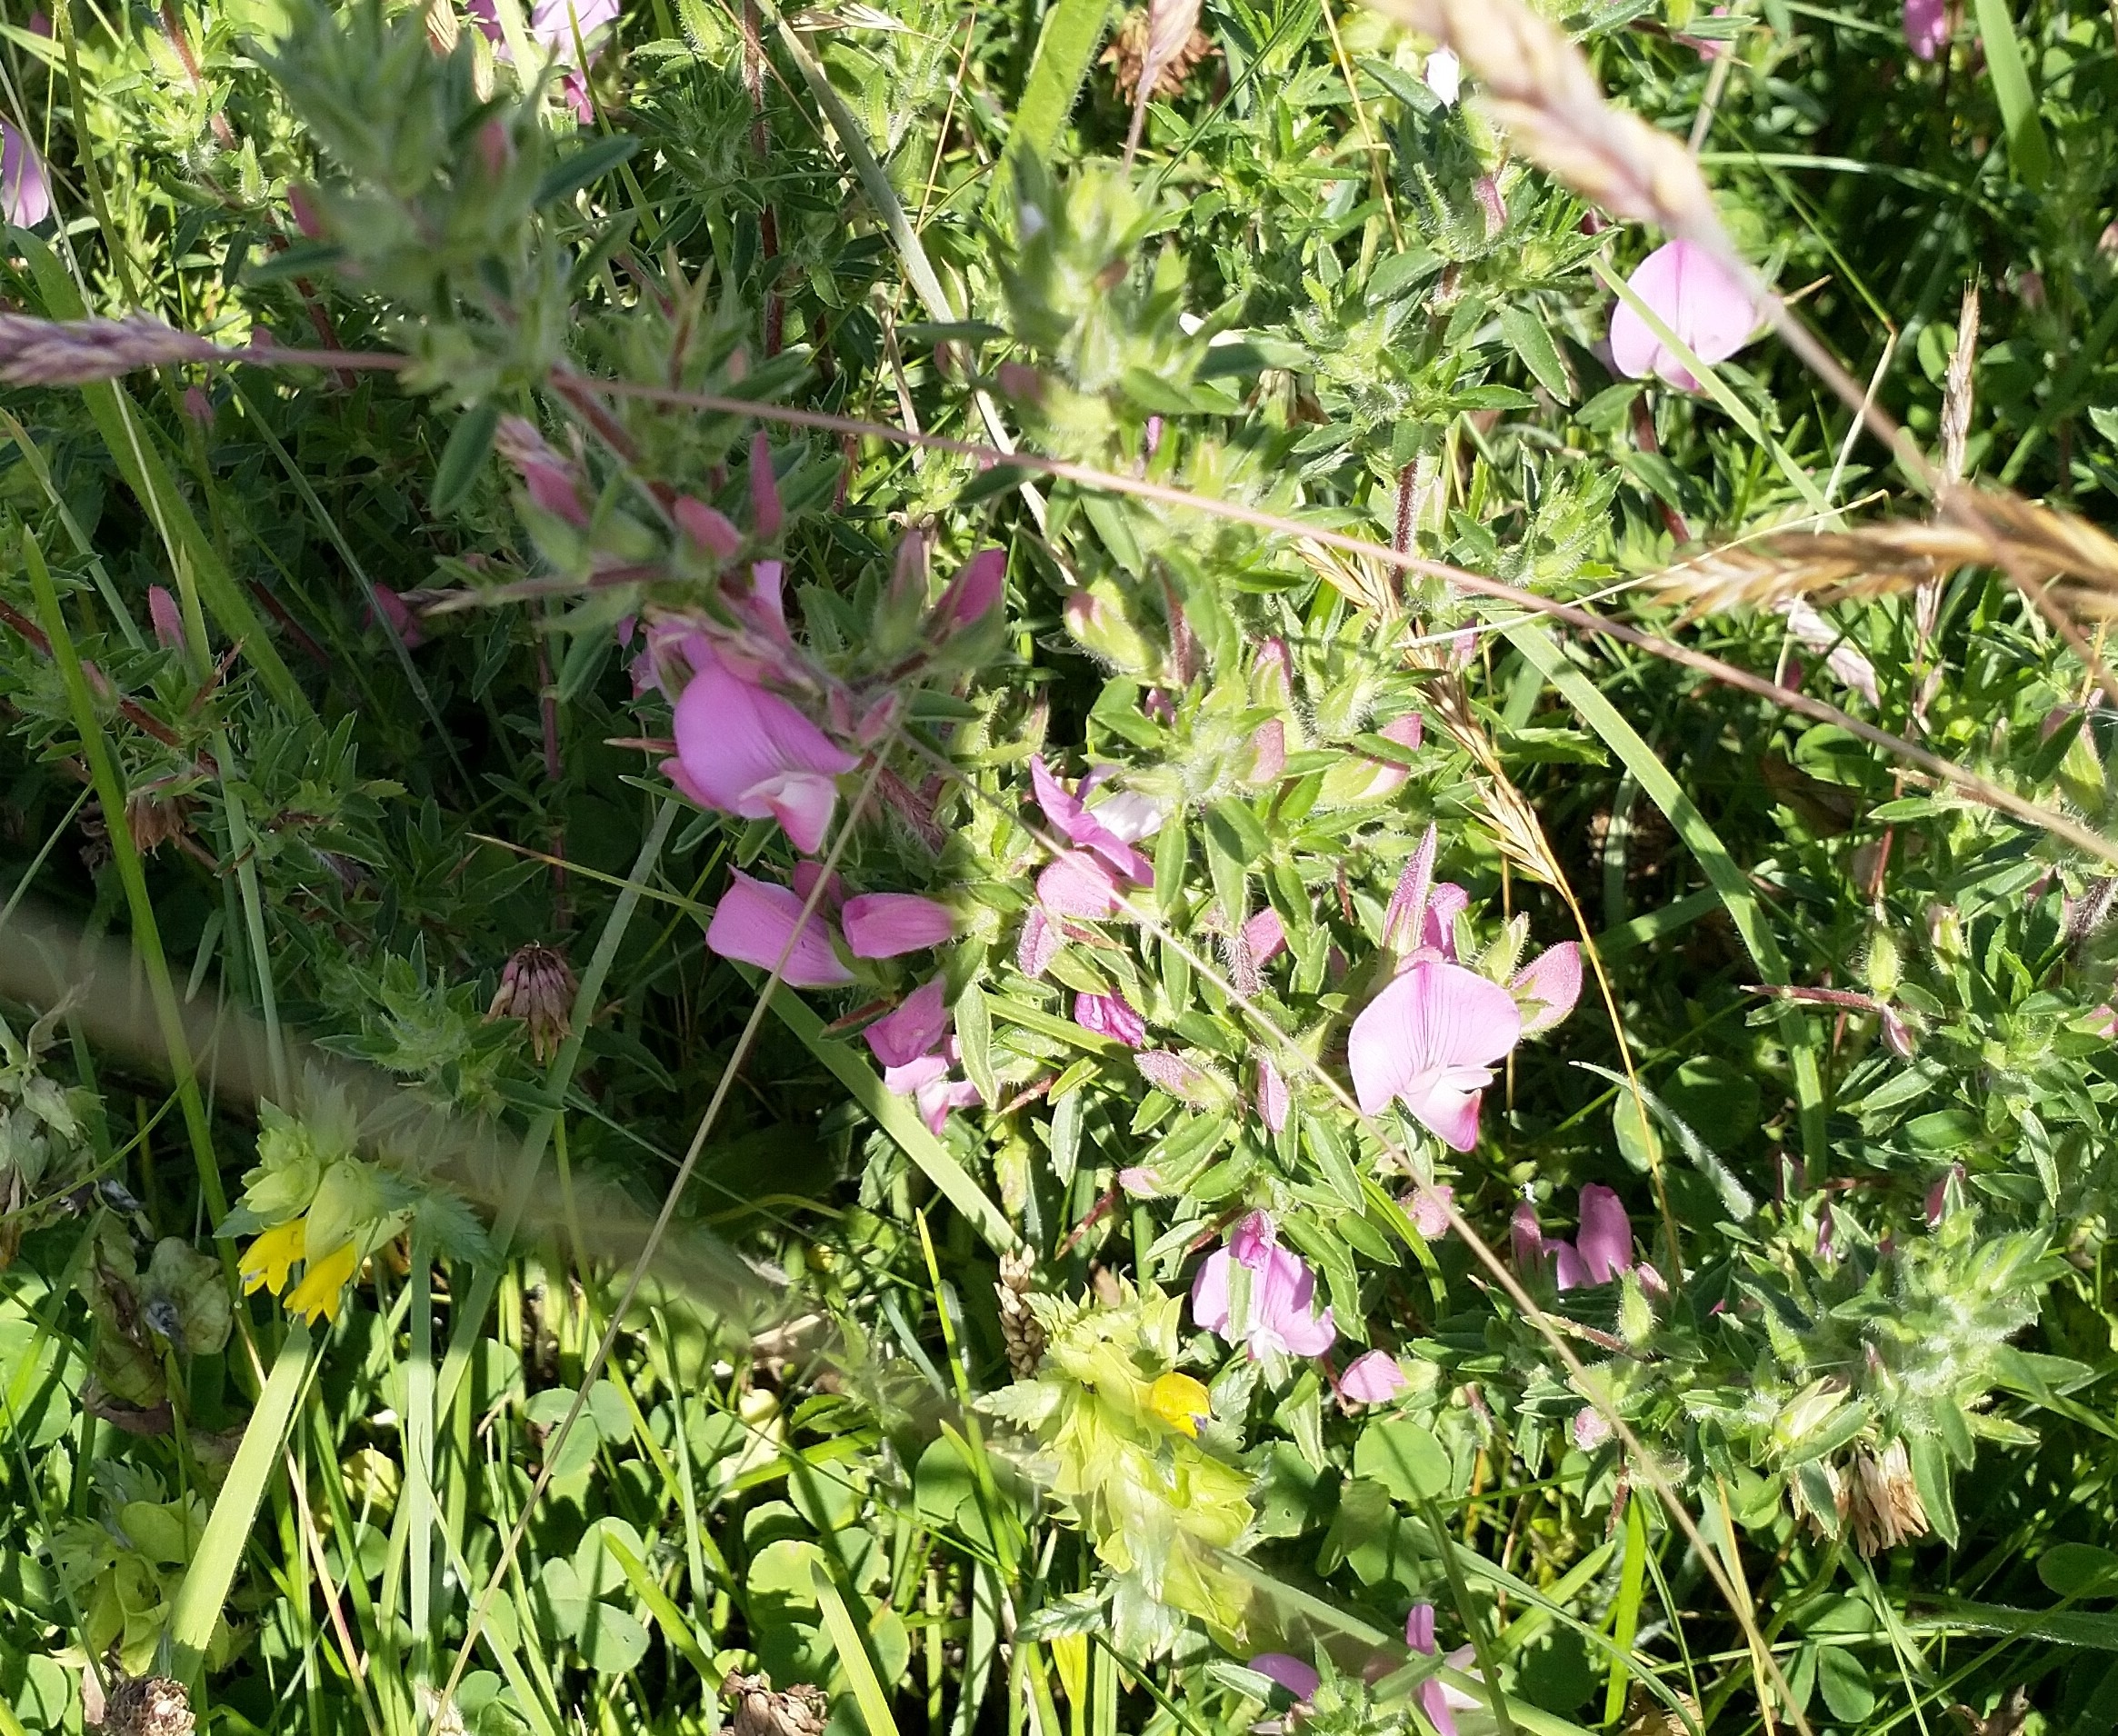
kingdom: Plantae
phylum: Tracheophyta
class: Magnoliopsida
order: Fabales
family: Fabaceae
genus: Ononis
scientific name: Ononis spinosa
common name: Strand-krageklo
